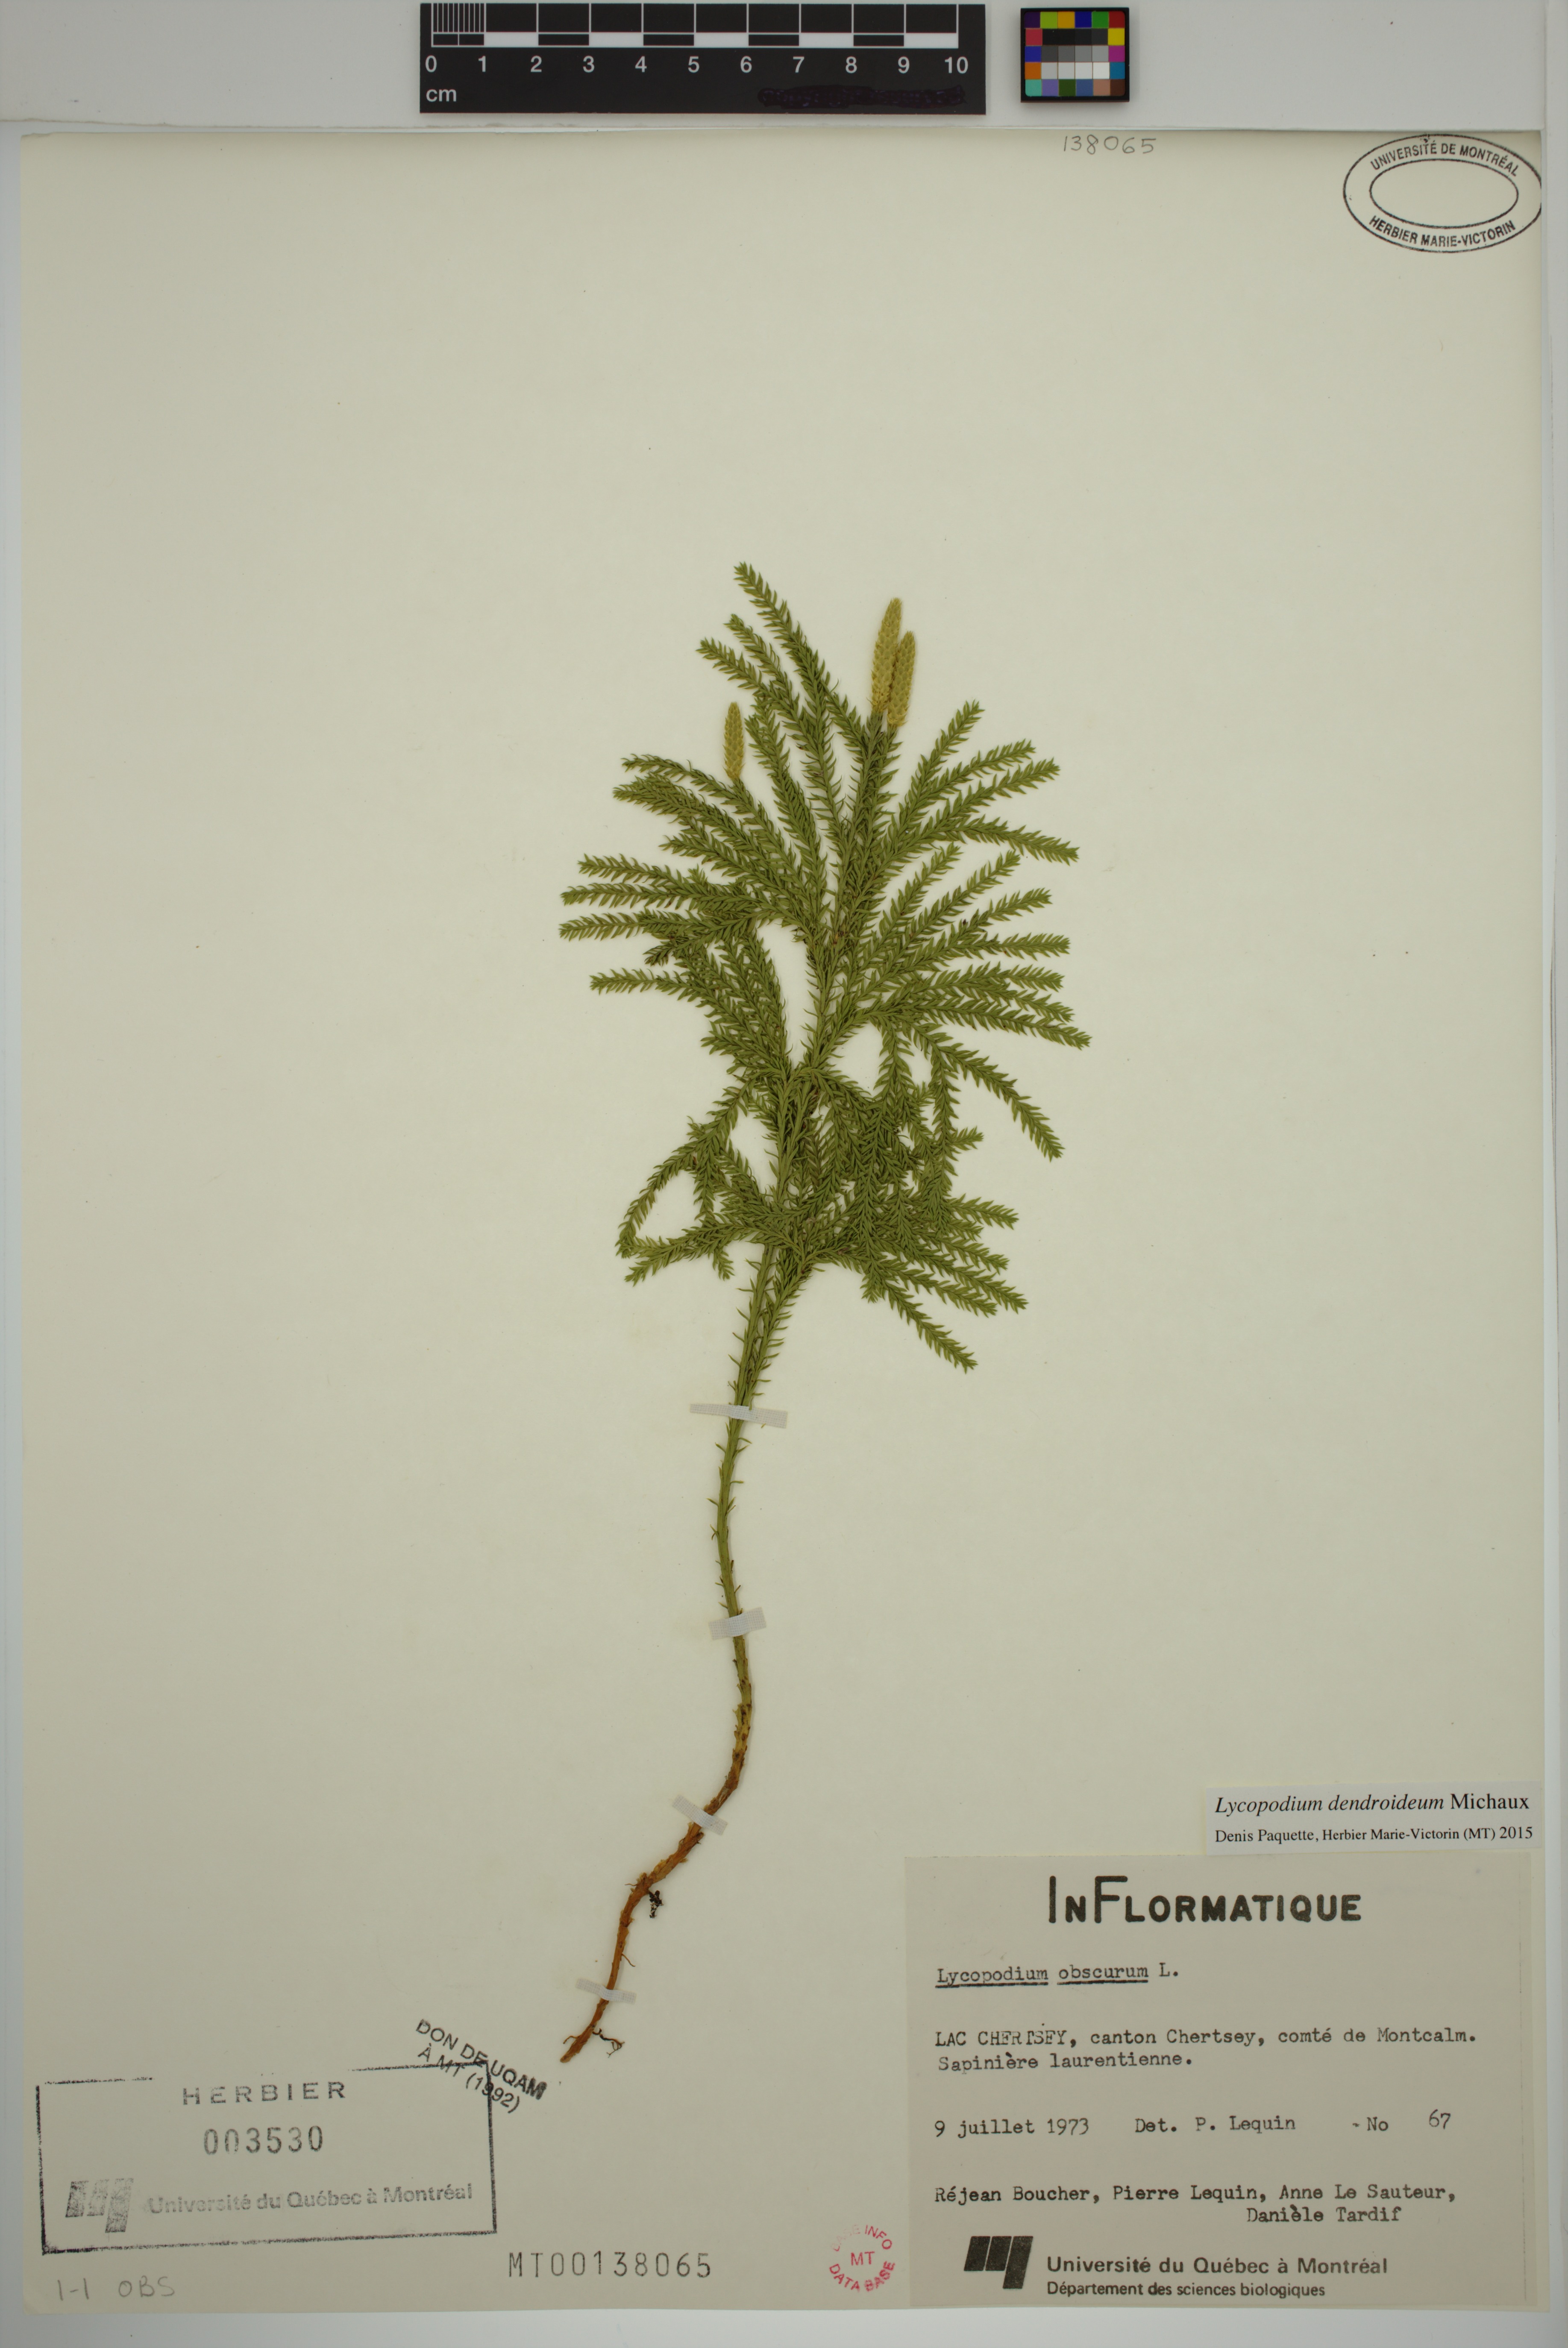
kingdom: Plantae
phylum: Tracheophyta
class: Lycopodiopsida
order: Lycopodiales
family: Lycopodiaceae
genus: Dendrolycopodium
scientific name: Dendrolycopodium dendroideum
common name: Northern tree-clubmoss
